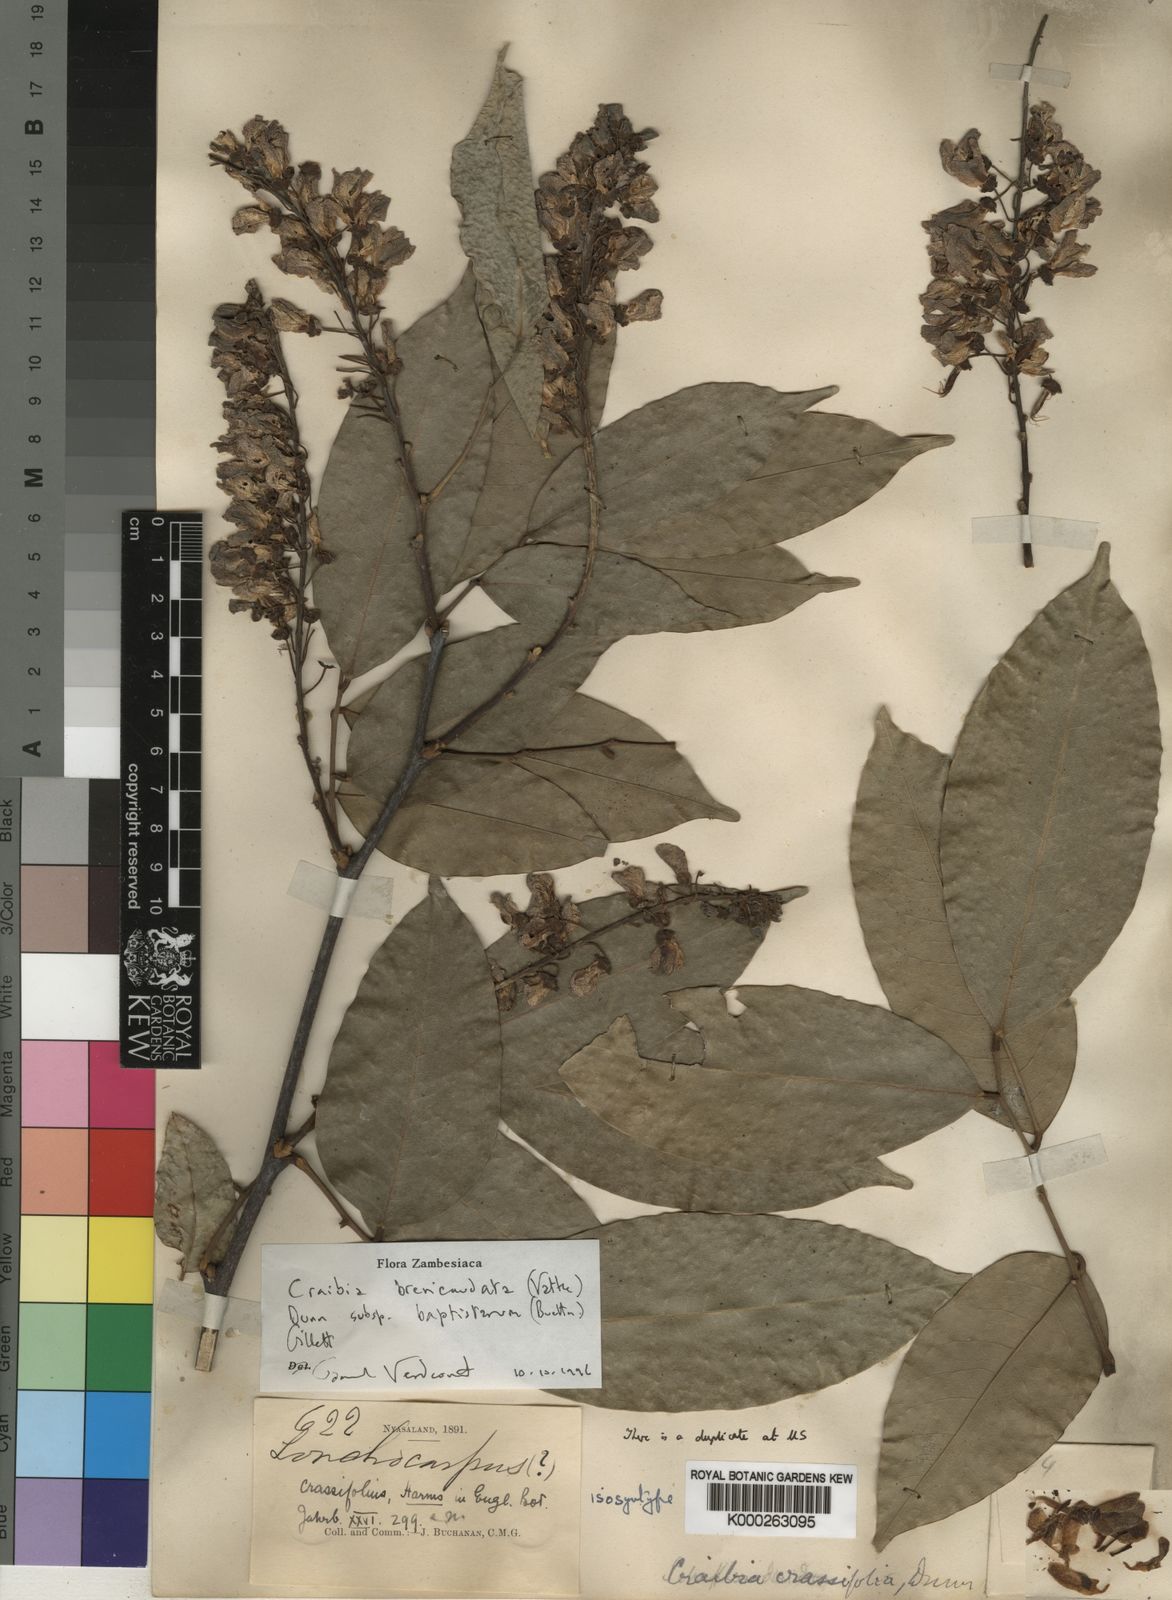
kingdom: Plantae
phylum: Tracheophyta
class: Magnoliopsida
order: Fabales
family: Fabaceae
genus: Craibia
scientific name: Craibia brevicaudata
